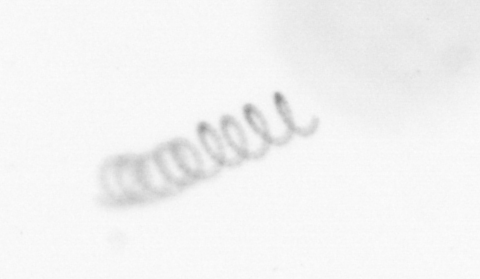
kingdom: Chromista
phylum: Ochrophyta
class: Bacillariophyceae
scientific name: Bacillariophyceae
